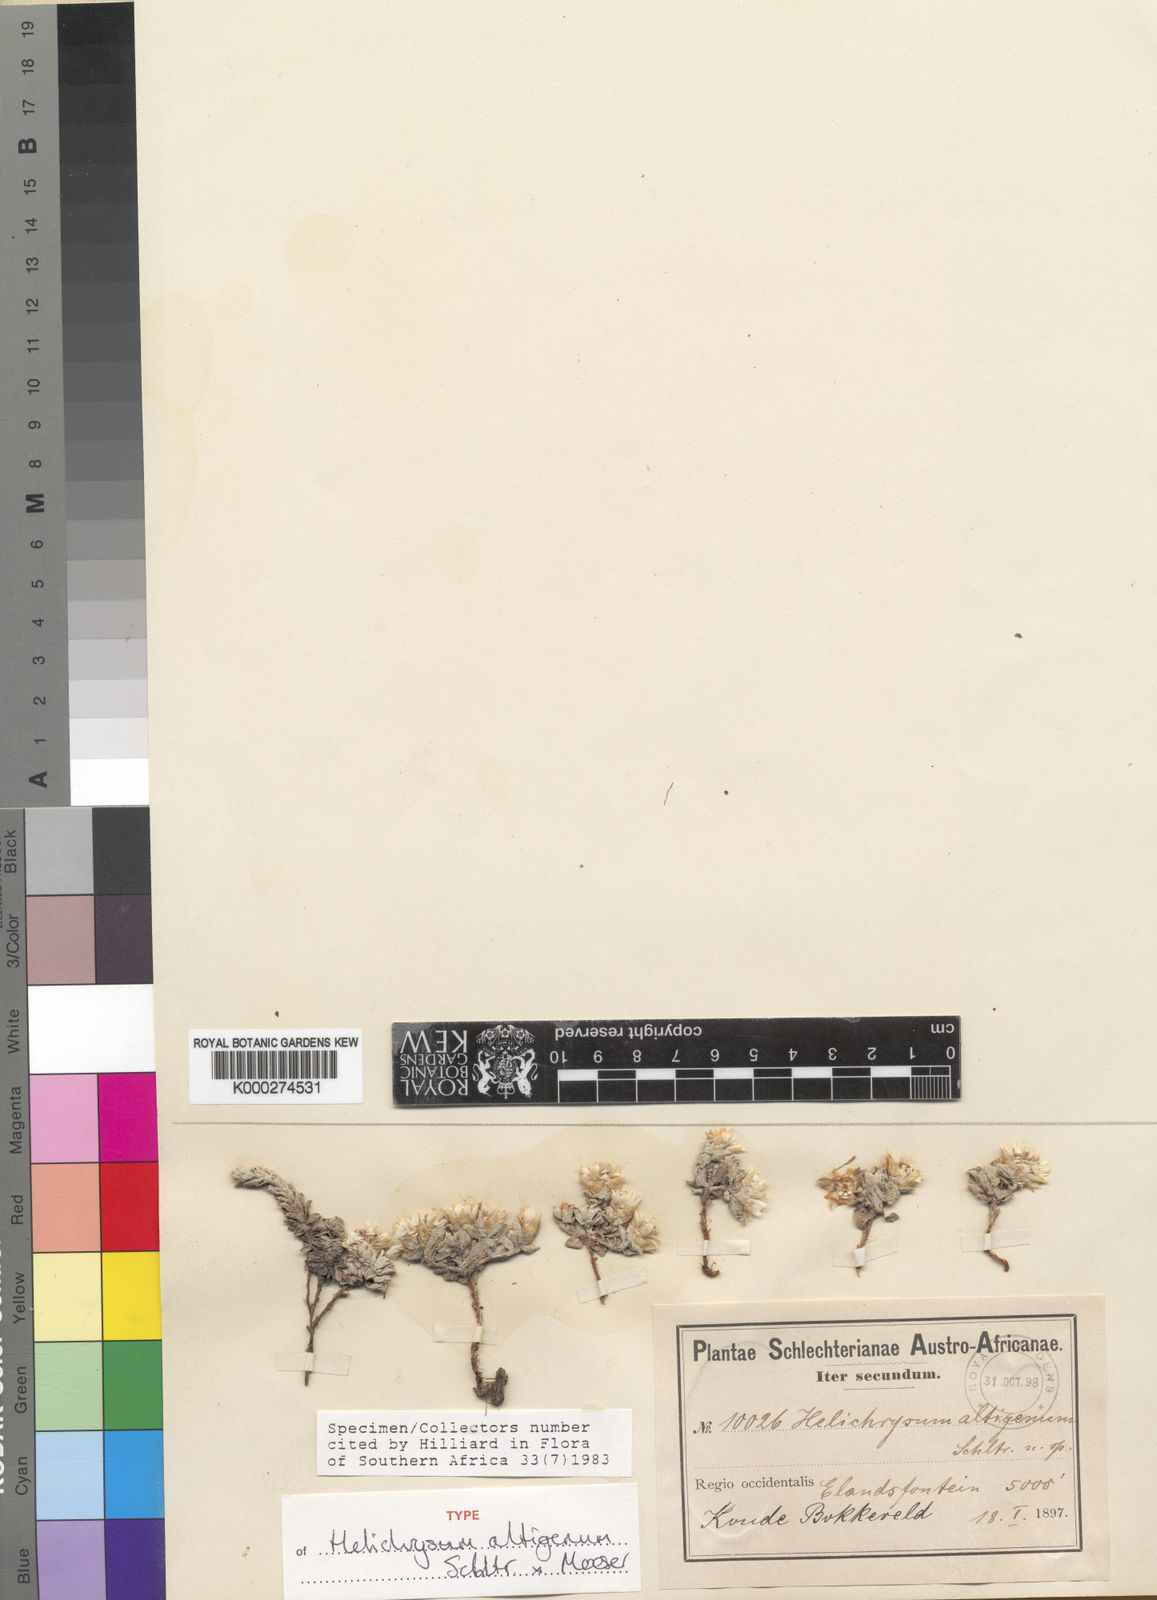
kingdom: Plantae
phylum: Tracheophyta
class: Magnoliopsida
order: Asterales
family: Asteraceae
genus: Helichrysum
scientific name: Helichrysum altigenum
